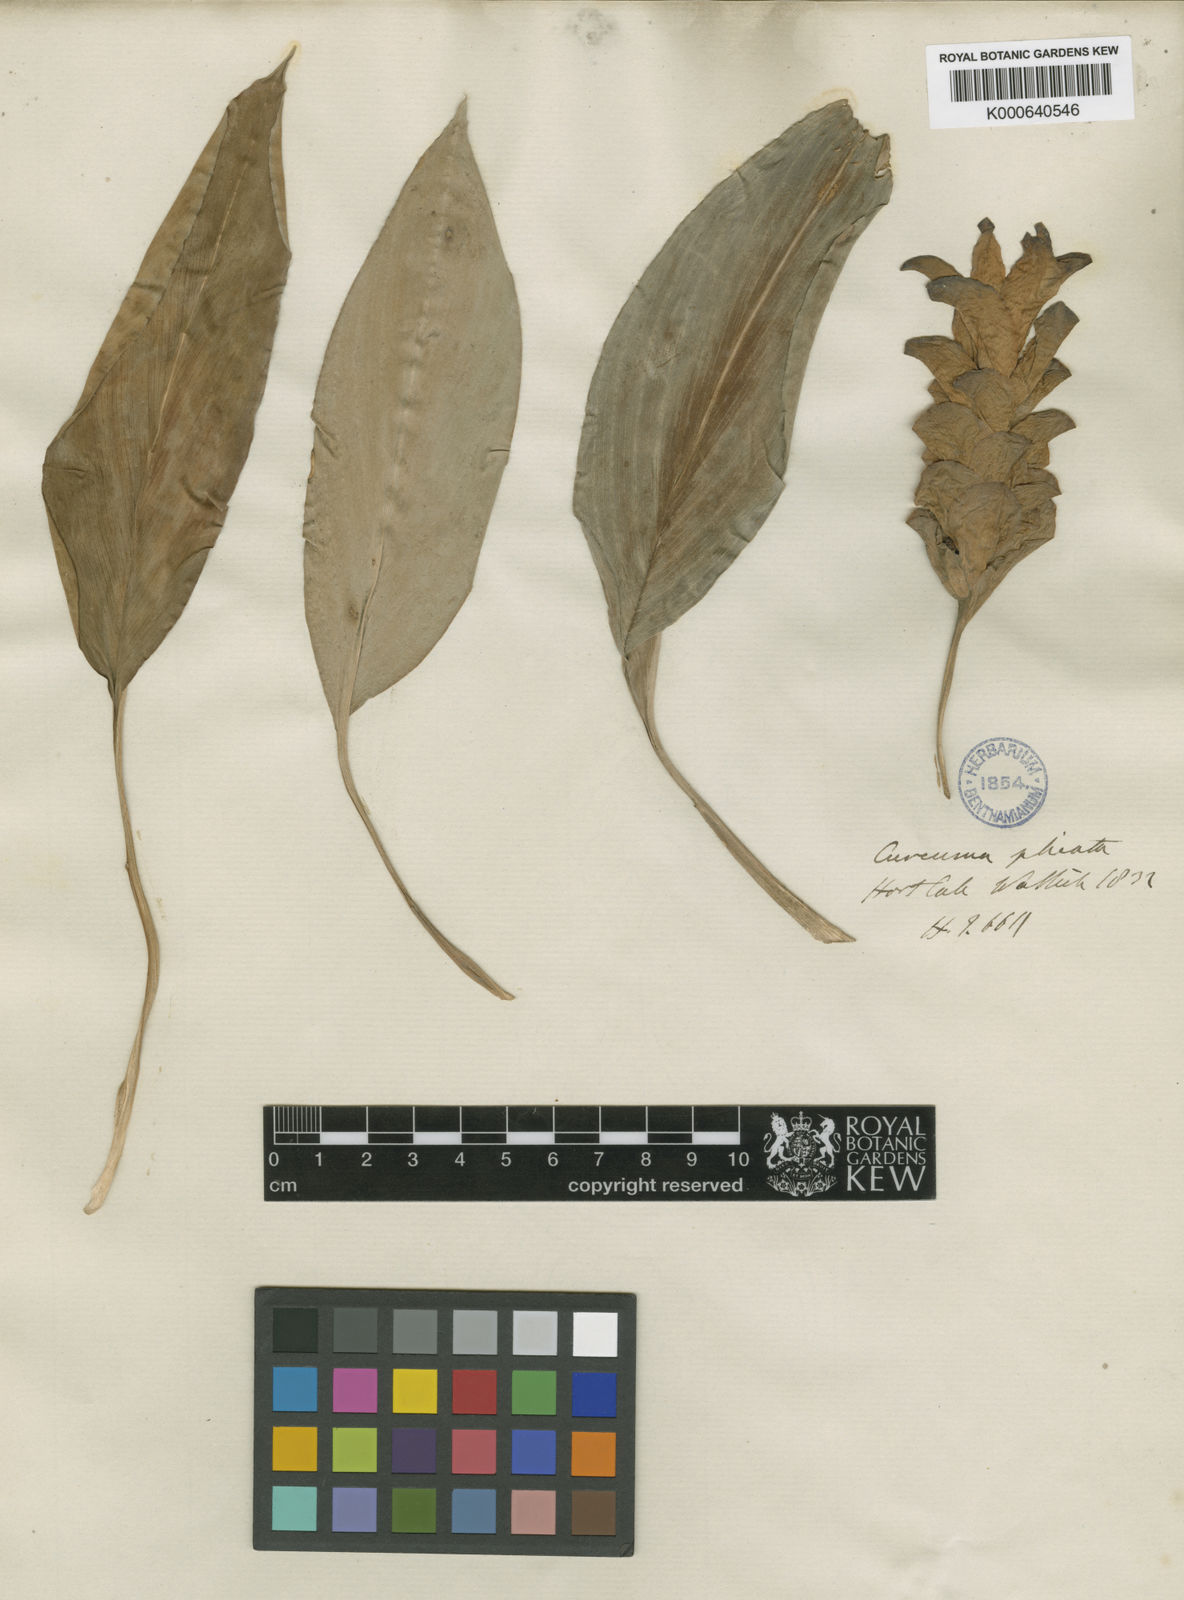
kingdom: Plantae
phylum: Tracheophyta
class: Liliopsida
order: Zingiberales
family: Zingiberaceae
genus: Curcuma
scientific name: Curcuma plicata
